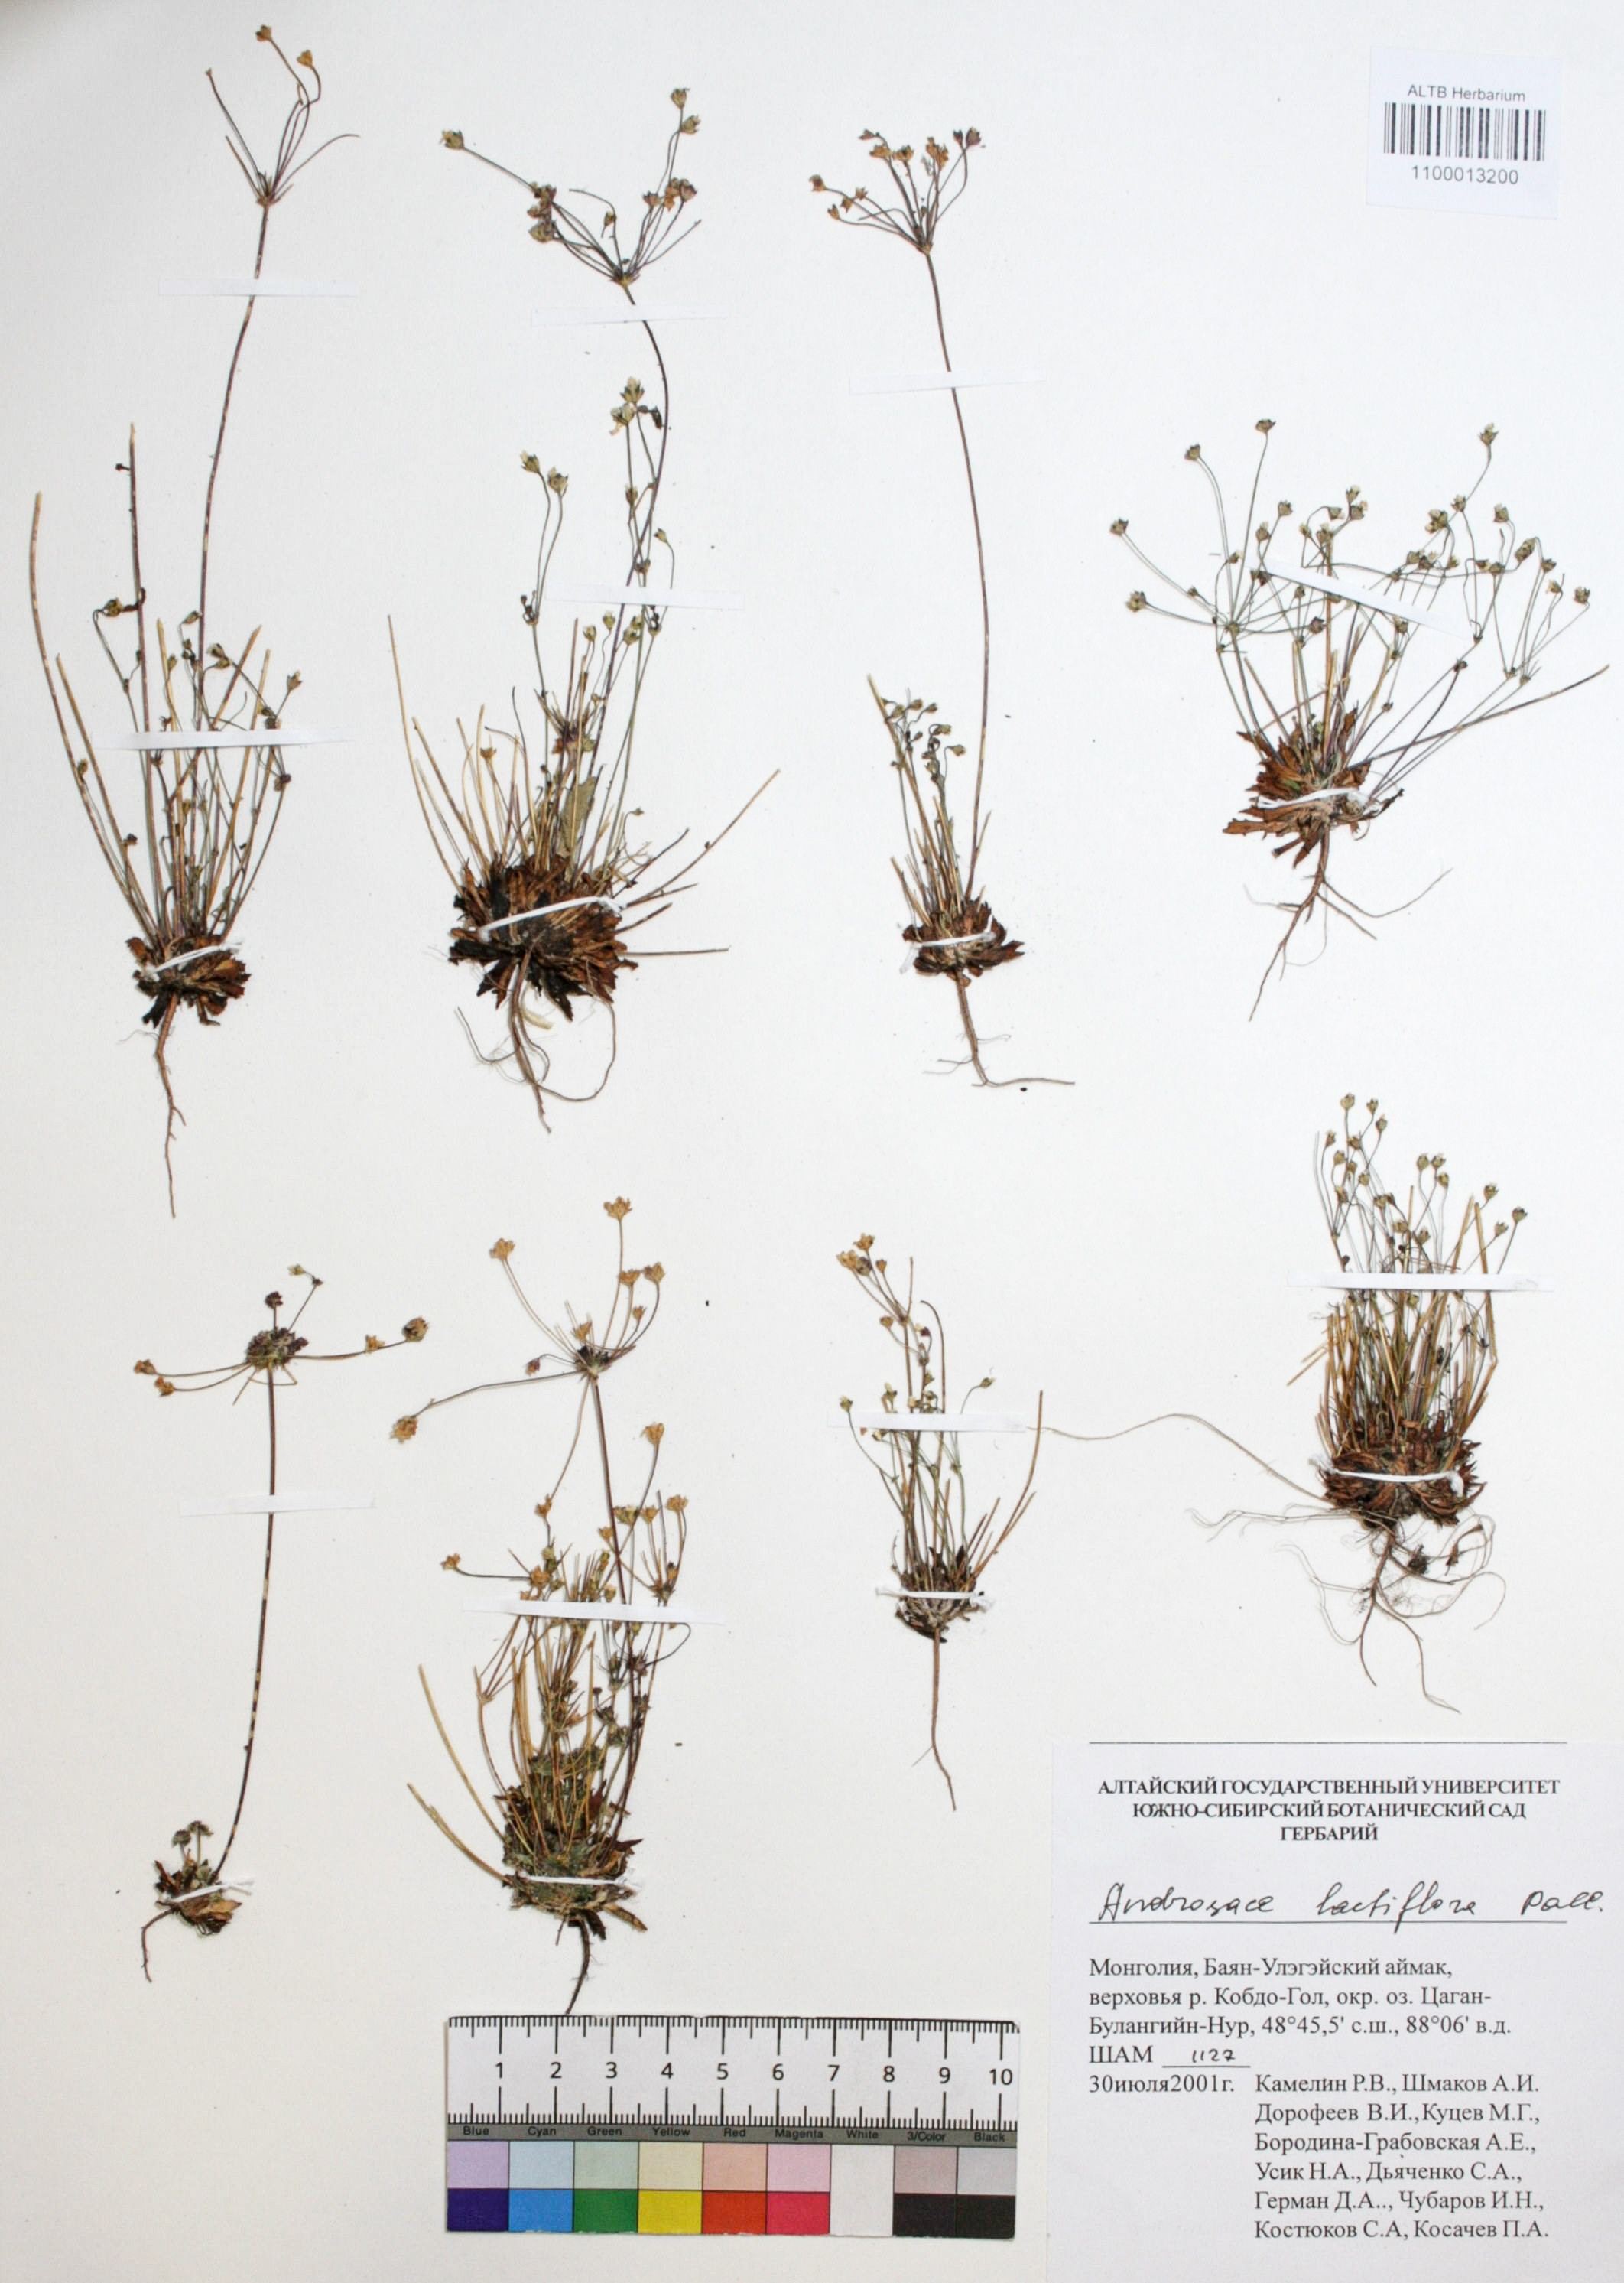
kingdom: Plantae
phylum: Tracheophyta
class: Magnoliopsida
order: Ericales
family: Primulaceae
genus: Androsace
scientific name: Androsace lactiflora
